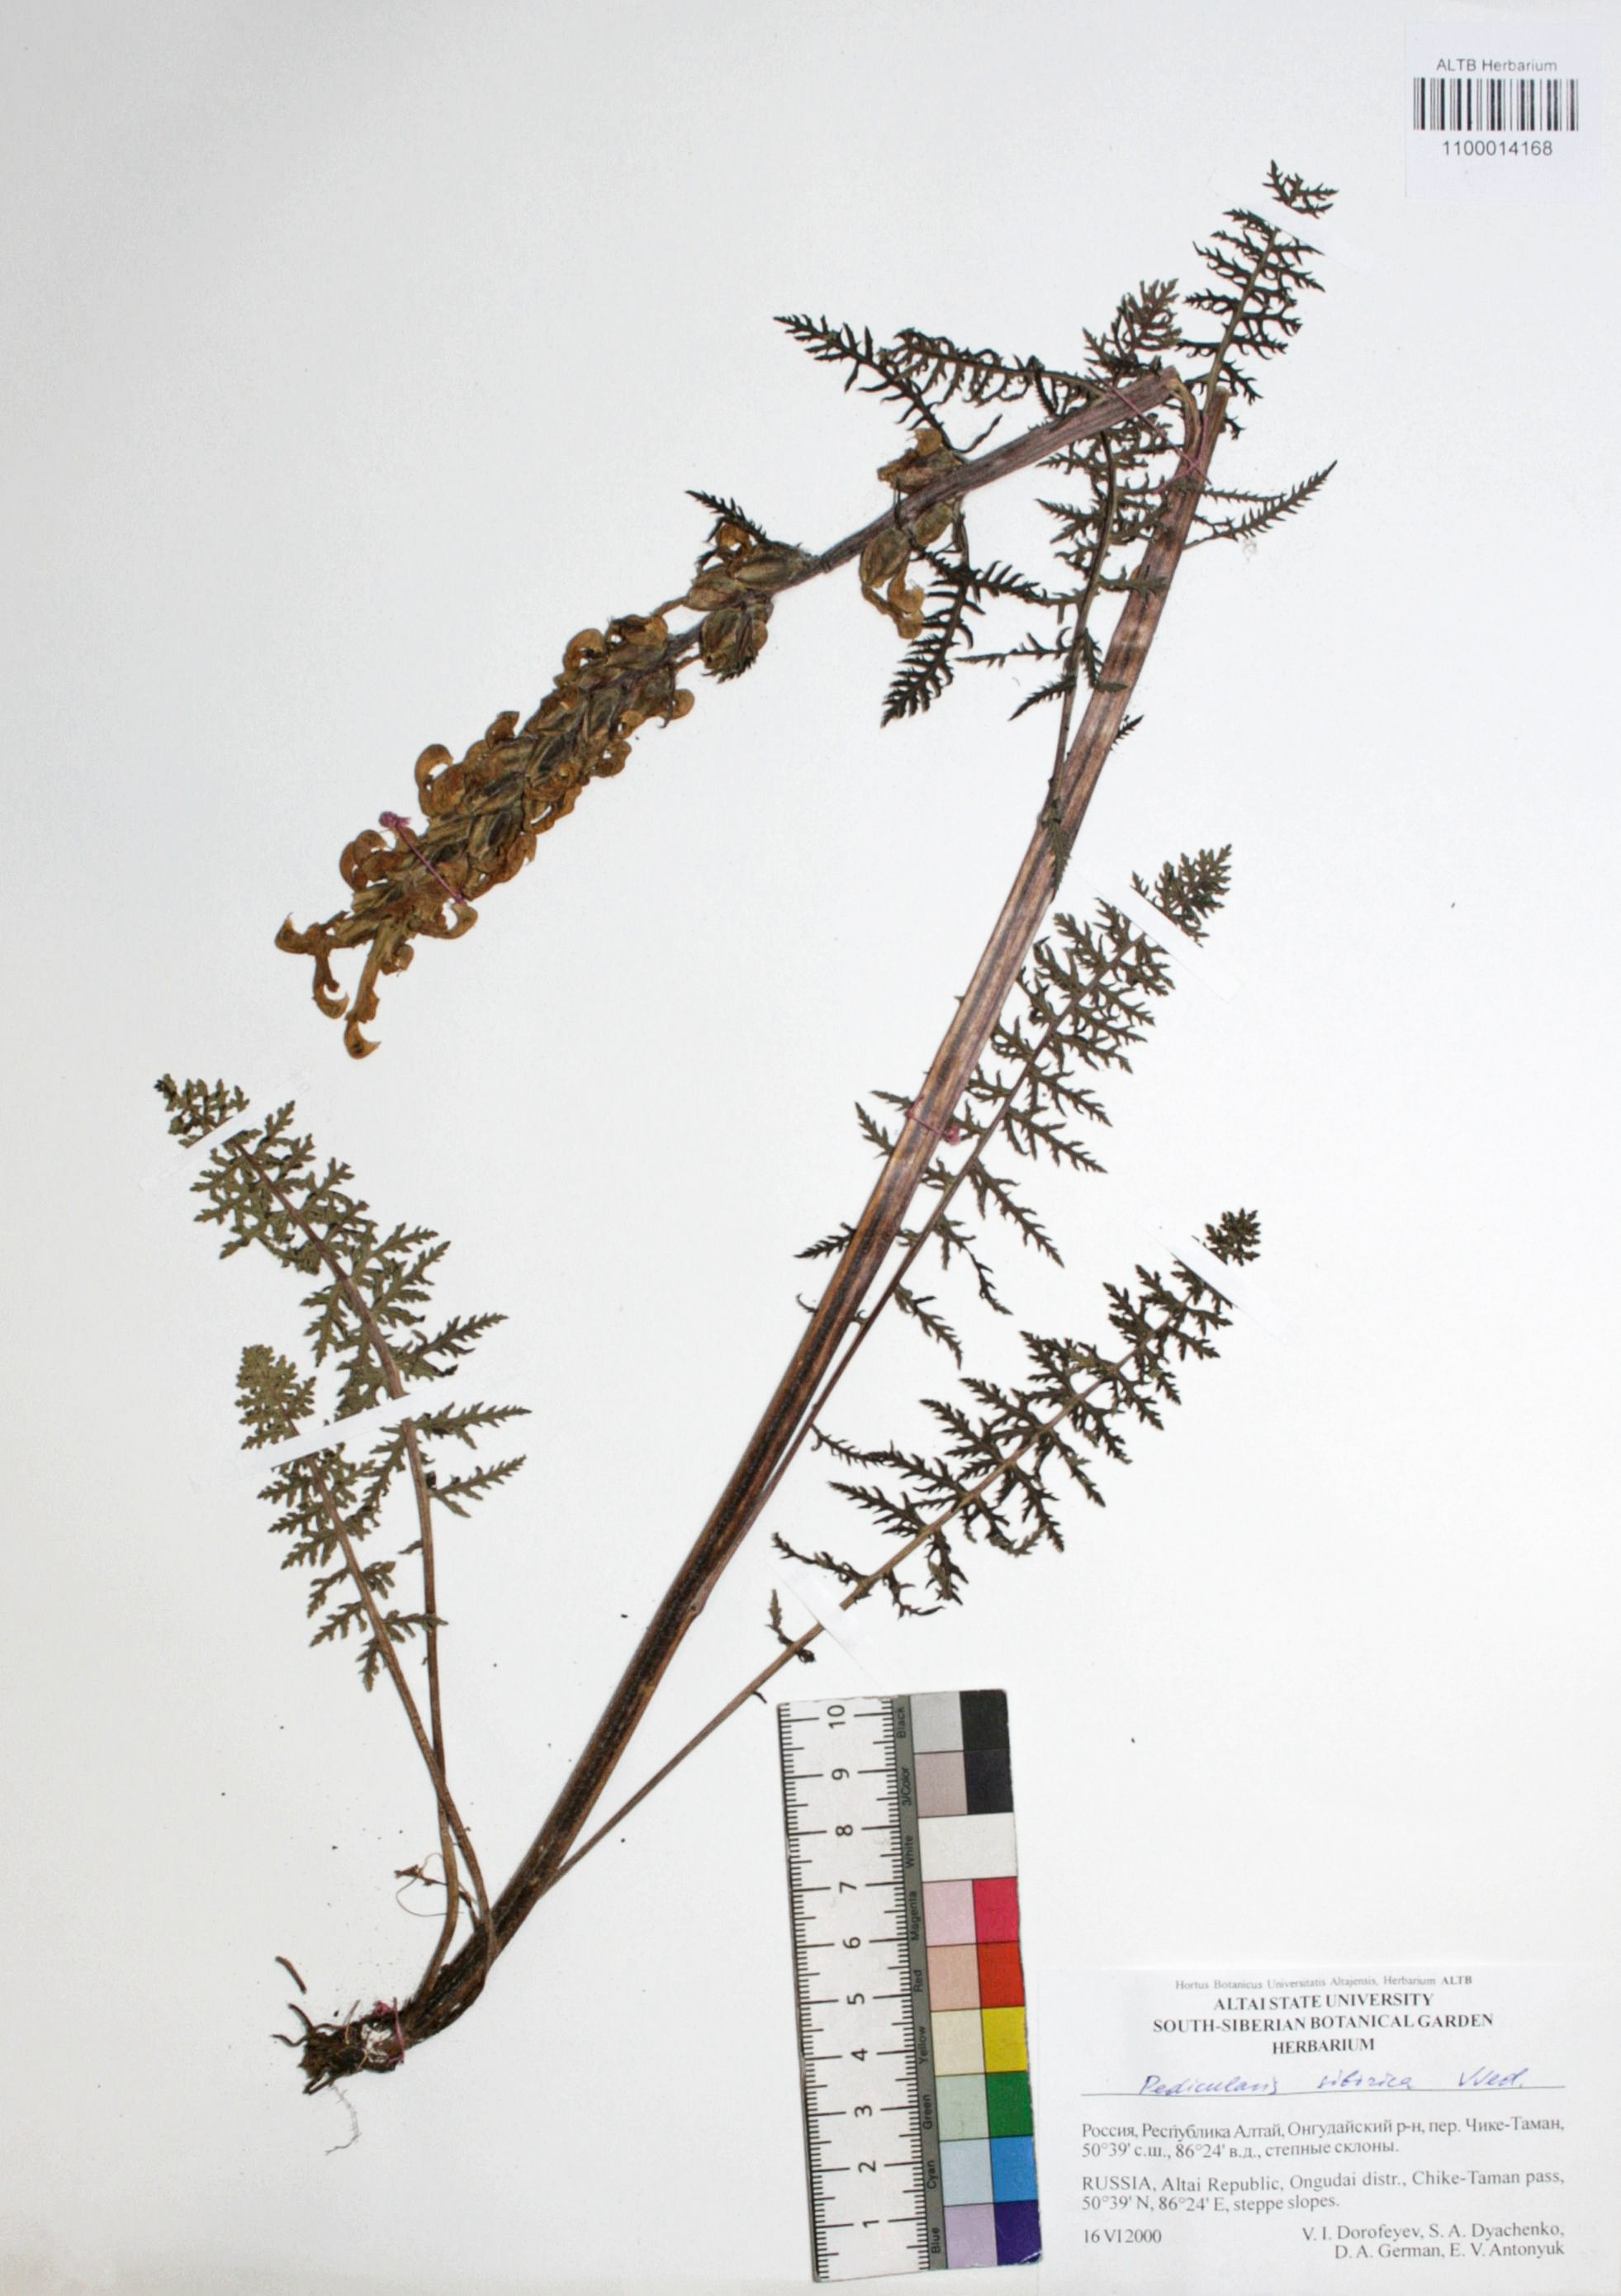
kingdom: Plantae
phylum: Tracheophyta
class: Magnoliopsida
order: Lamiales
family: Orobanchaceae
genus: Pedicularis
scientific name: Pedicularis sibirica
